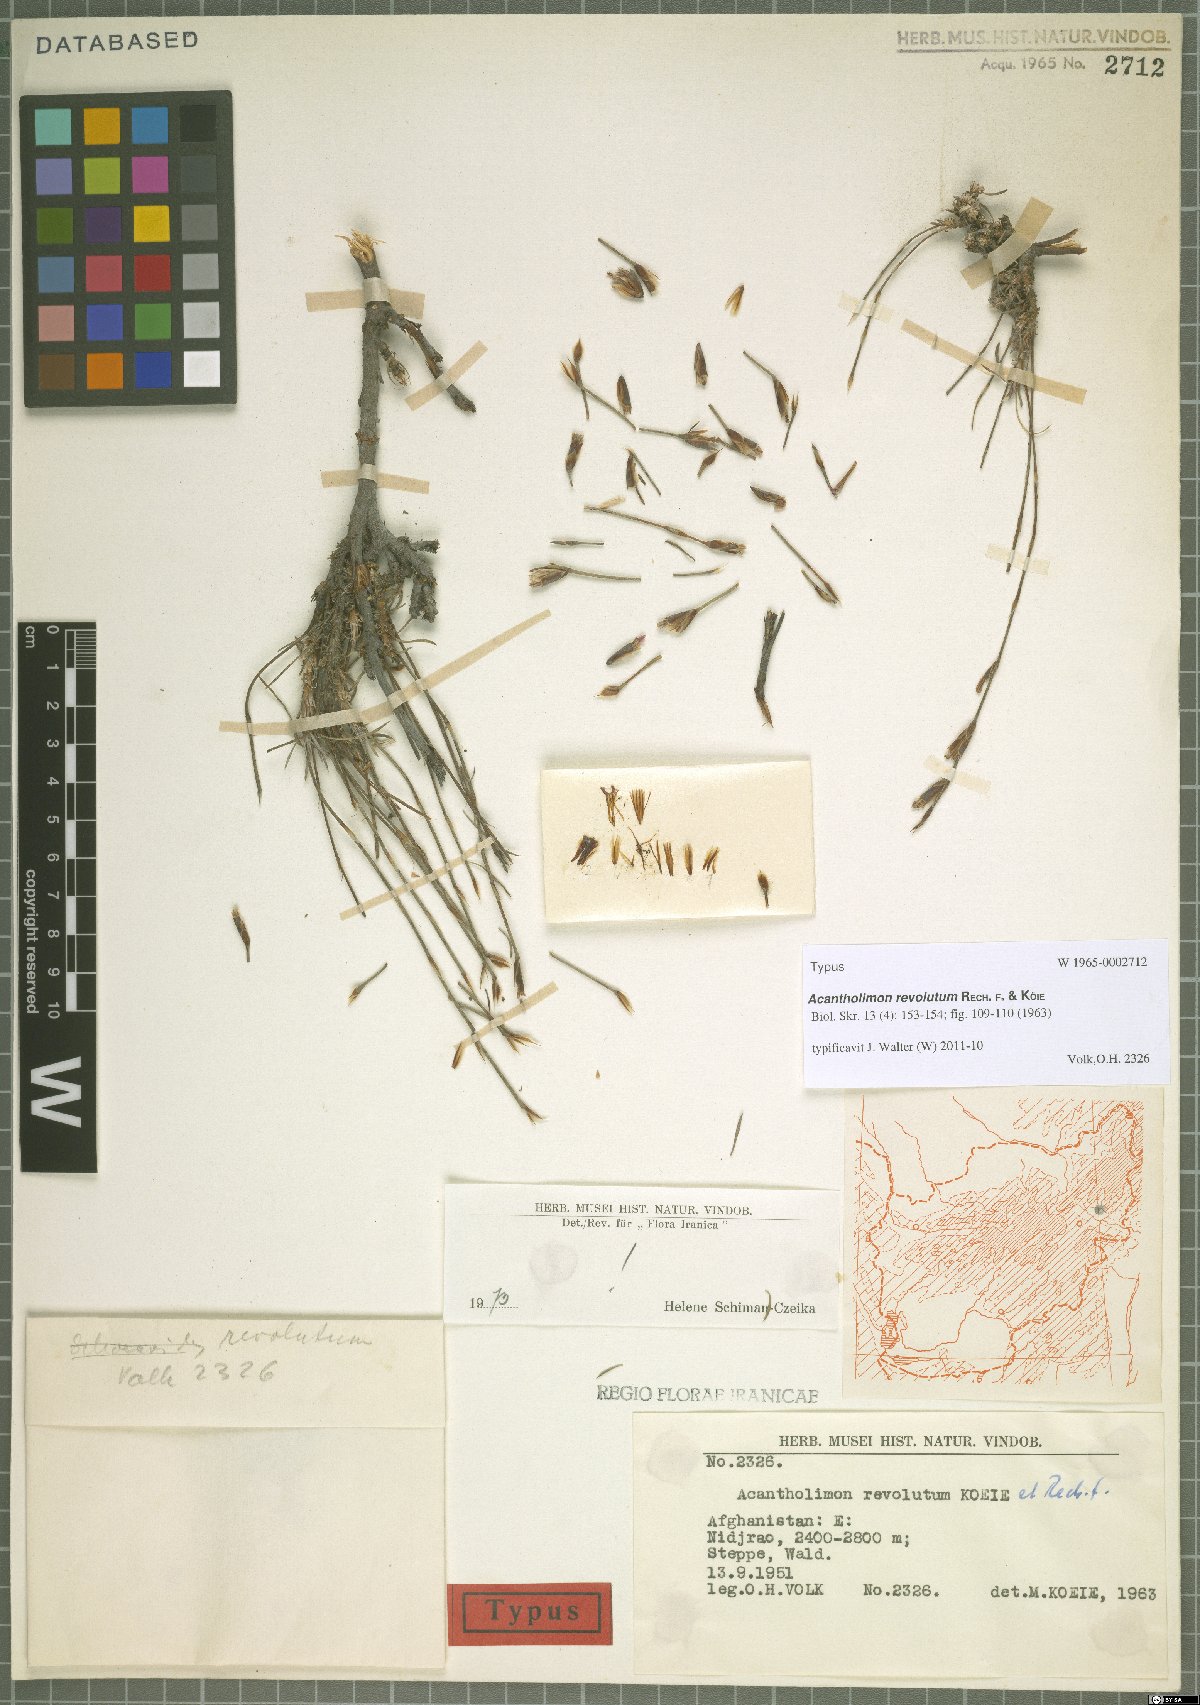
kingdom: Plantae
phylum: Tracheophyta
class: Magnoliopsida
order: Caryophyllales
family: Plumbaginaceae
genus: Acantholimon
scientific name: Acantholimon revolutum
